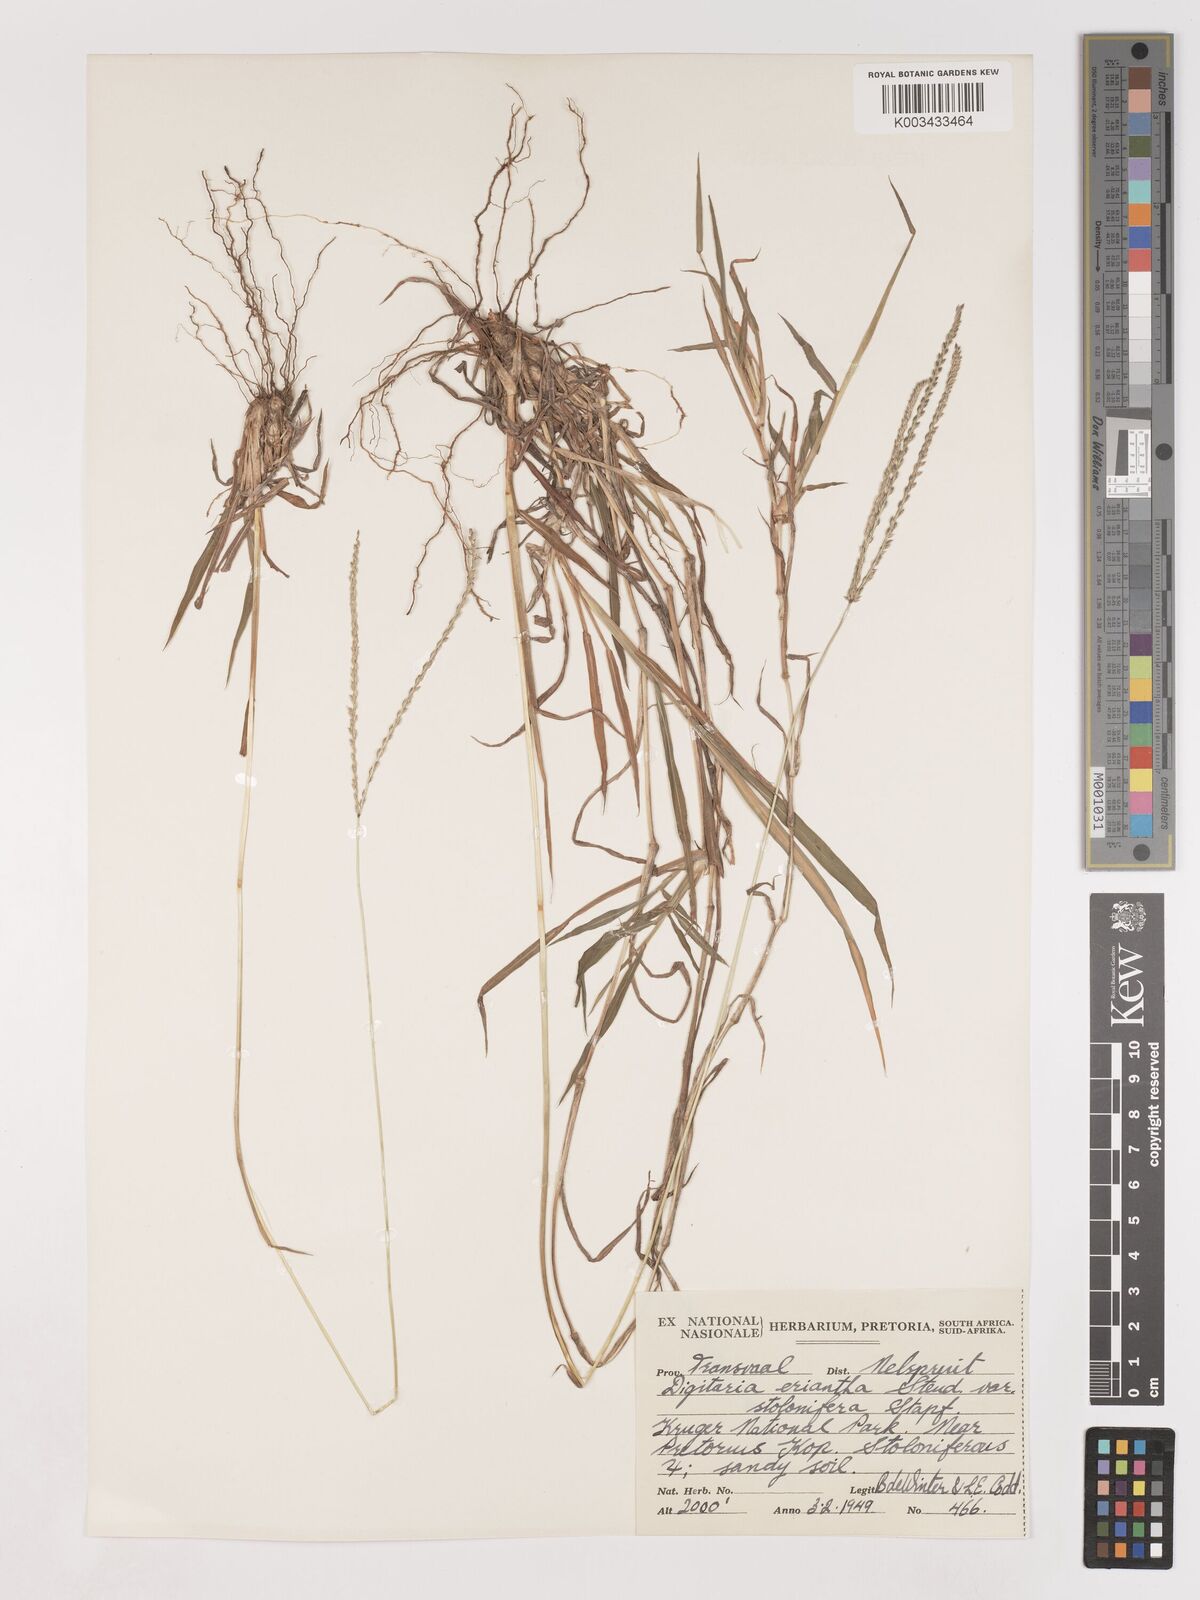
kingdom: Plantae
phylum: Tracheophyta
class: Liliopsida
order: Poales
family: Poaceae
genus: Digitaria
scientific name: Digitaria eriantha
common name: Digitgrass
